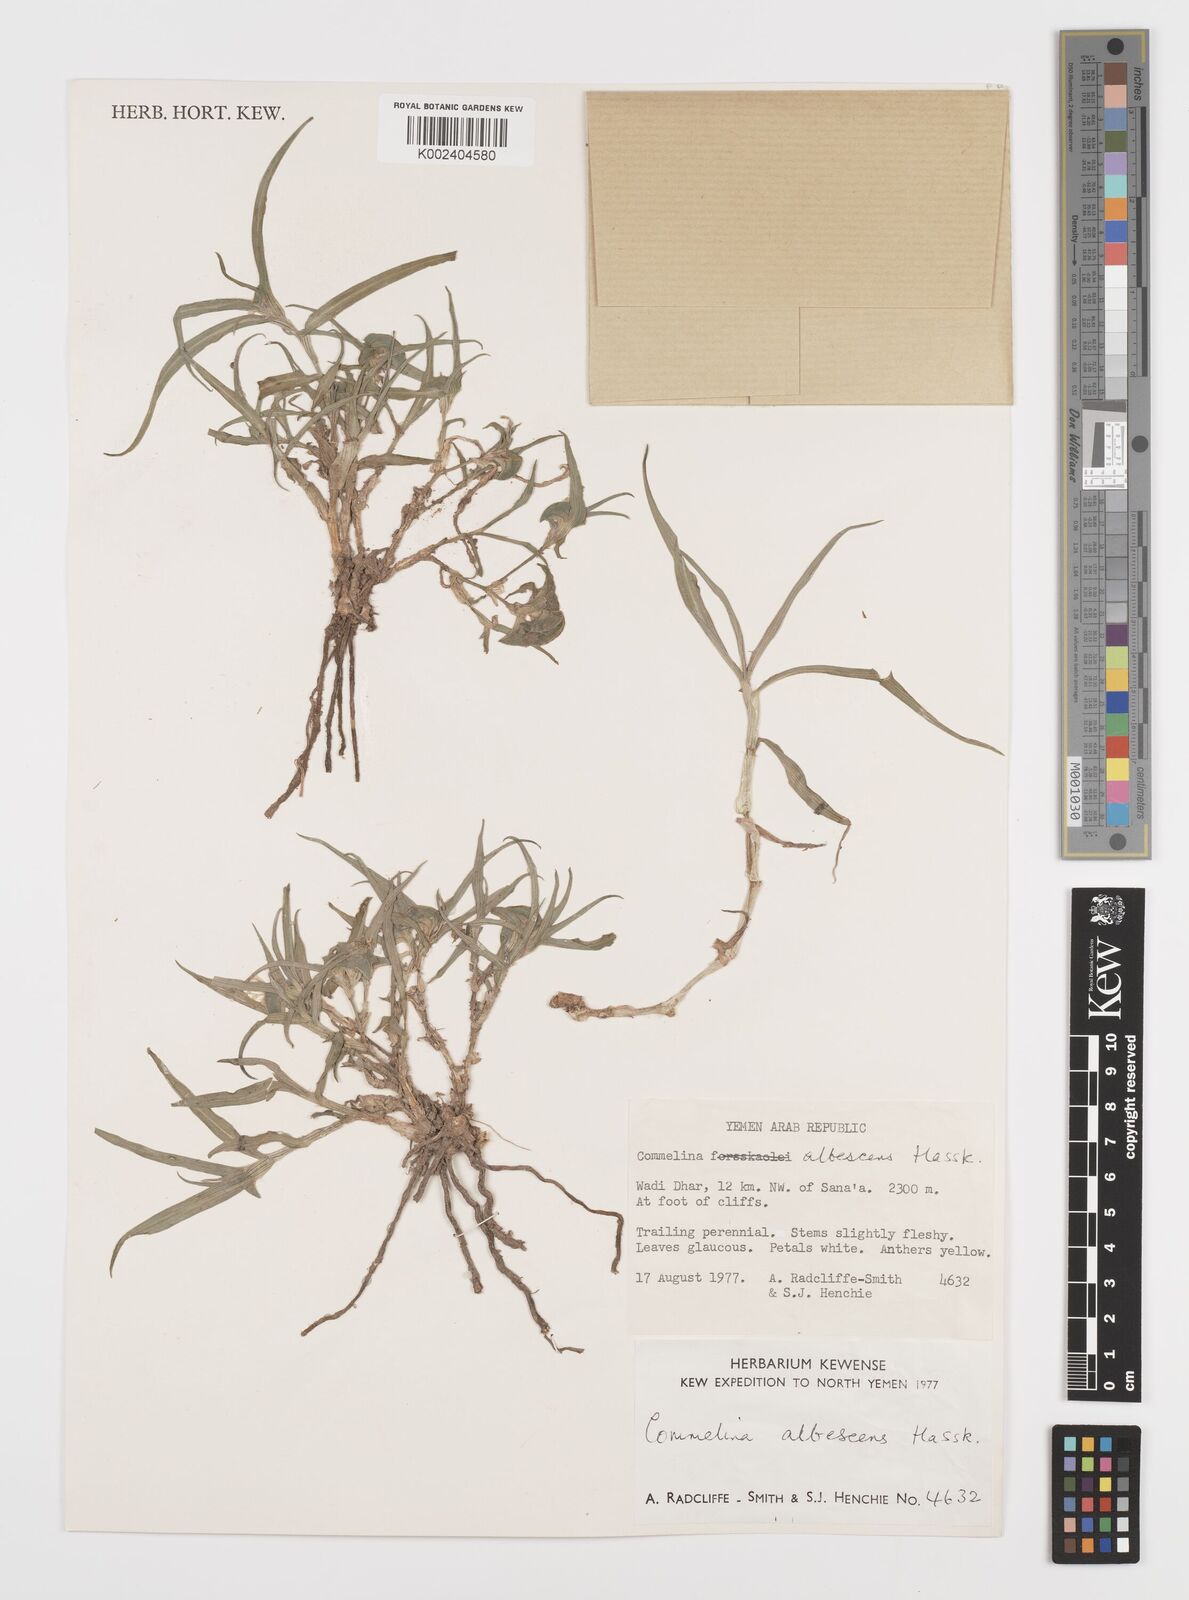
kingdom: Plantae
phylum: Tracheophyta
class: Liliopsida
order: Commelinales
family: Commelinaceae
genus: Commelina
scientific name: Commelina albescens
